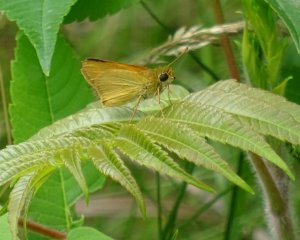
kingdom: Animalia
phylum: Arthropoda
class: Insecta
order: Lepidoptera
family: Hesperiidae
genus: Thymelicus
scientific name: Thymelicus lineola
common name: European Skipper
